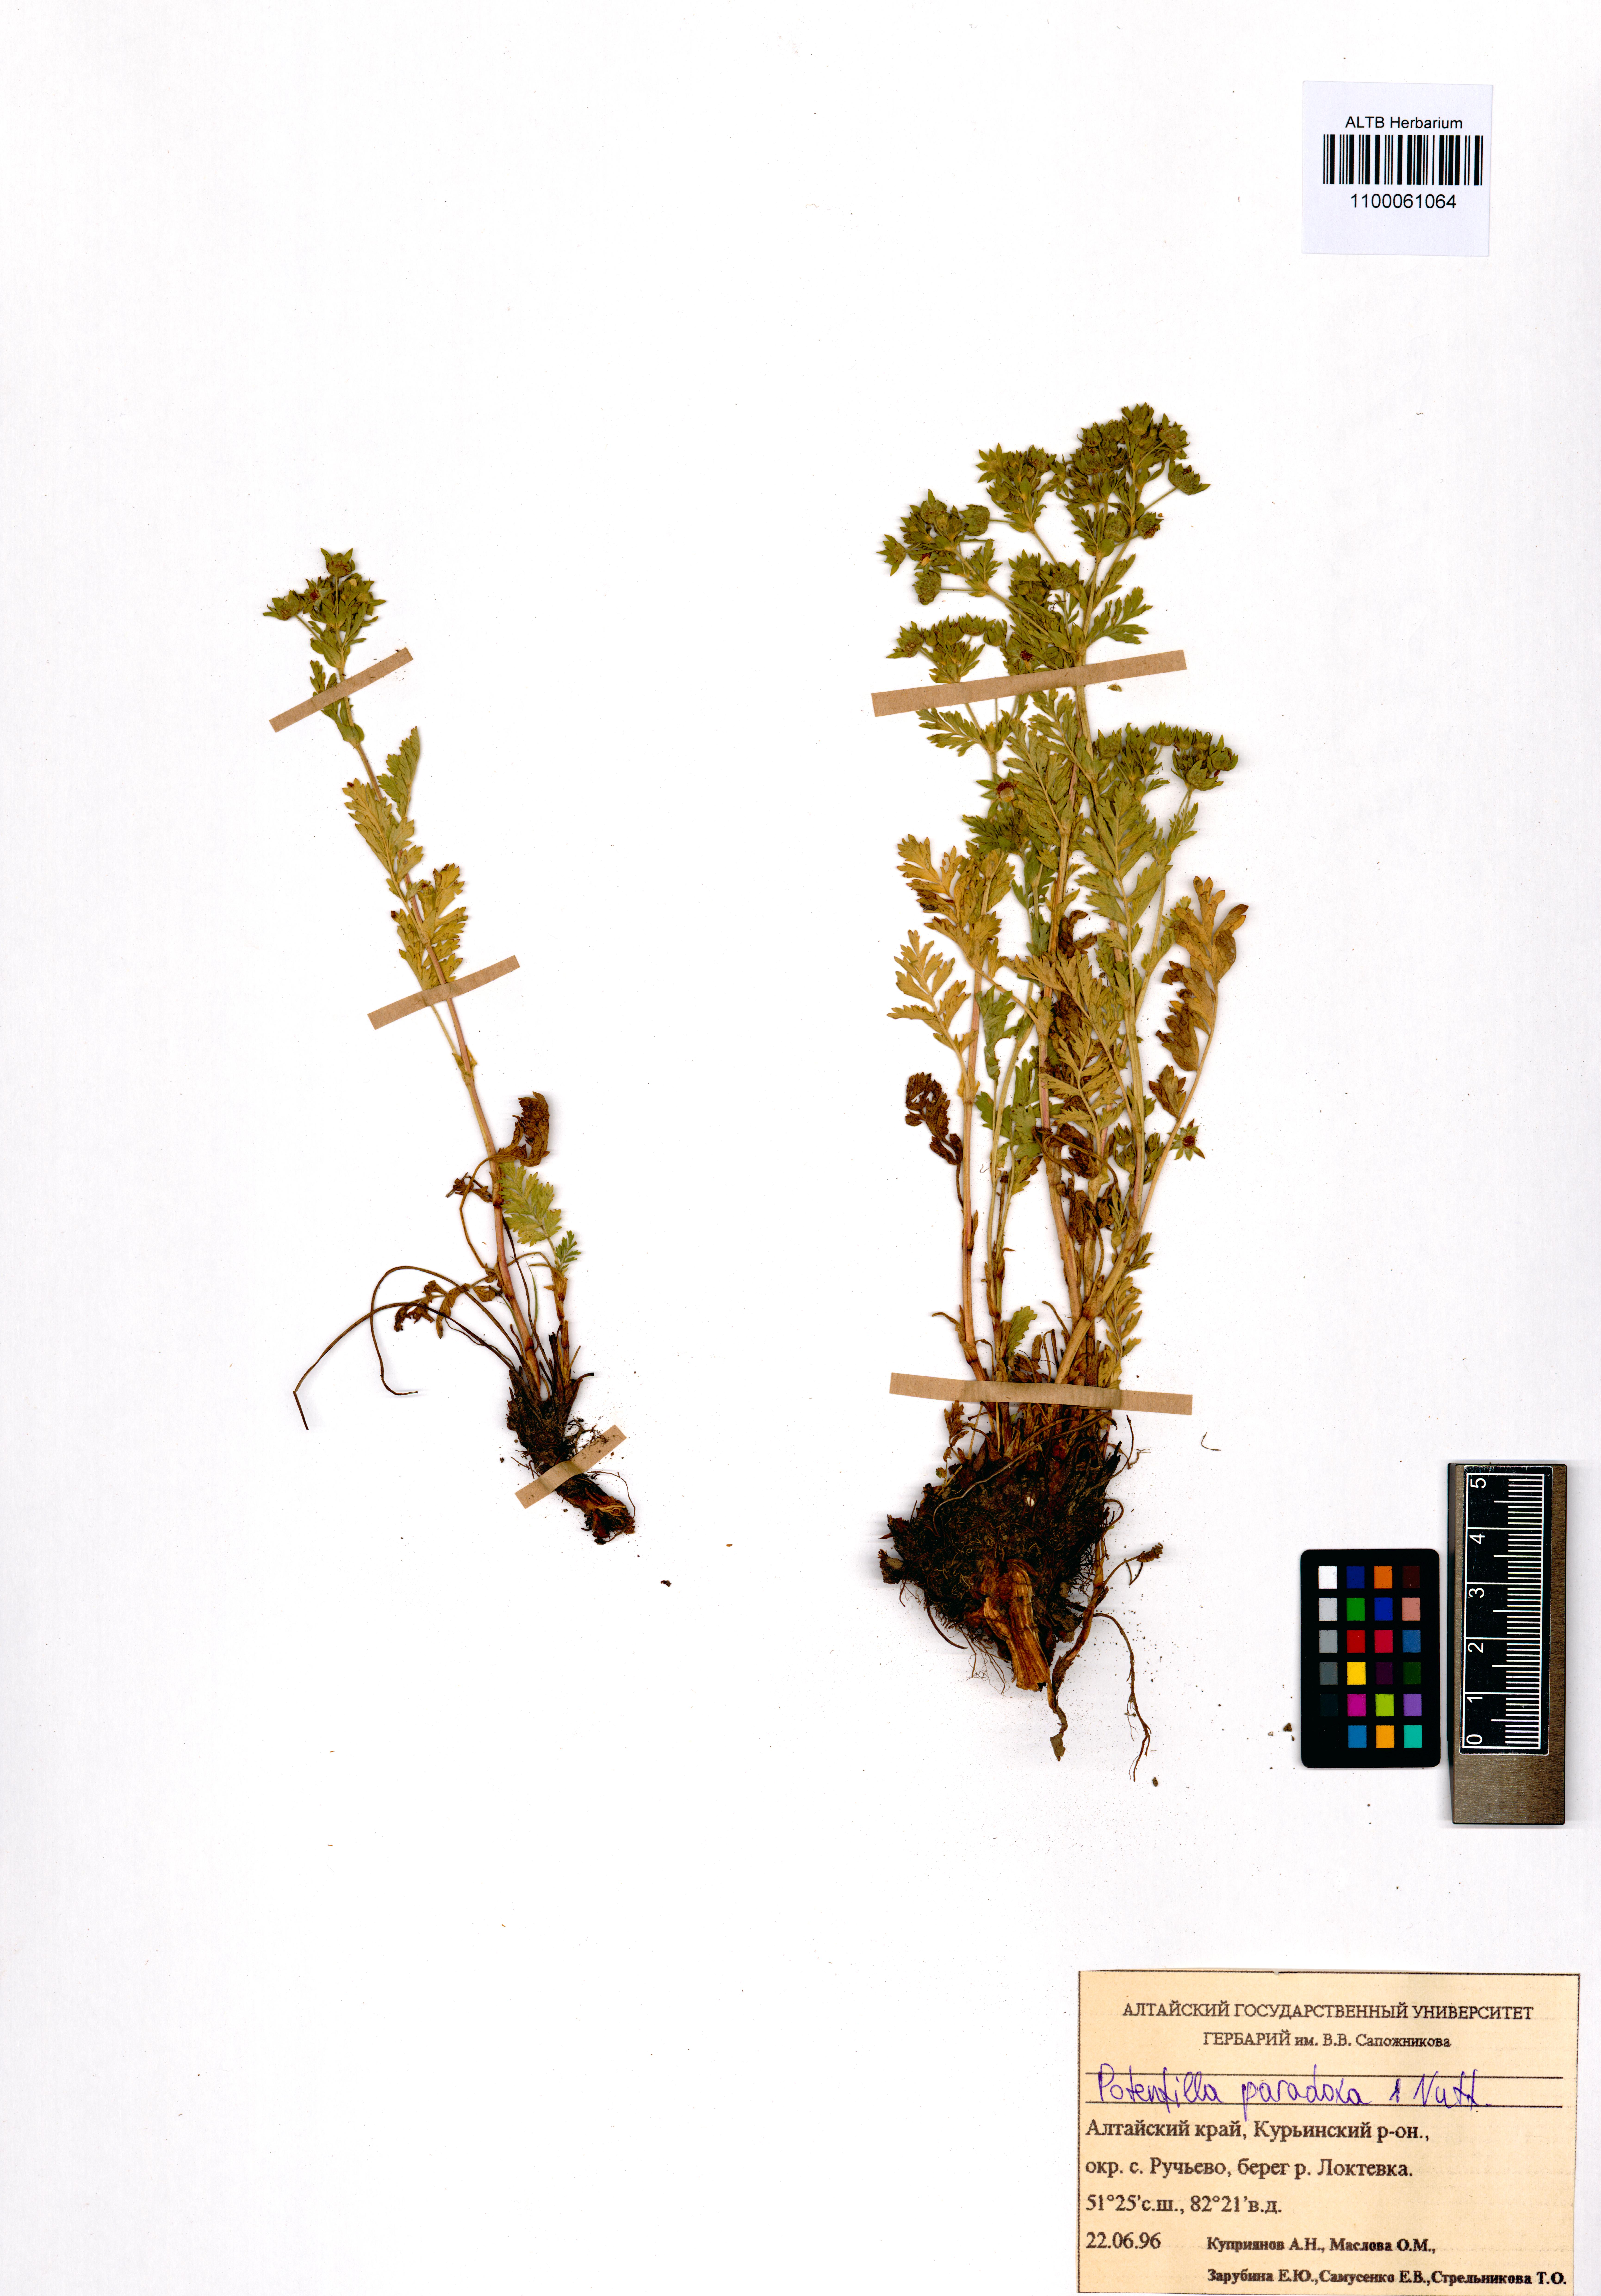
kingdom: Plantae
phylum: Tracheophyta
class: Magnoliopsida
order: Rosales
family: Rosaceae
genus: Potentilla
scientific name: Potentilla supina
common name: Prostrate cinquefoil
